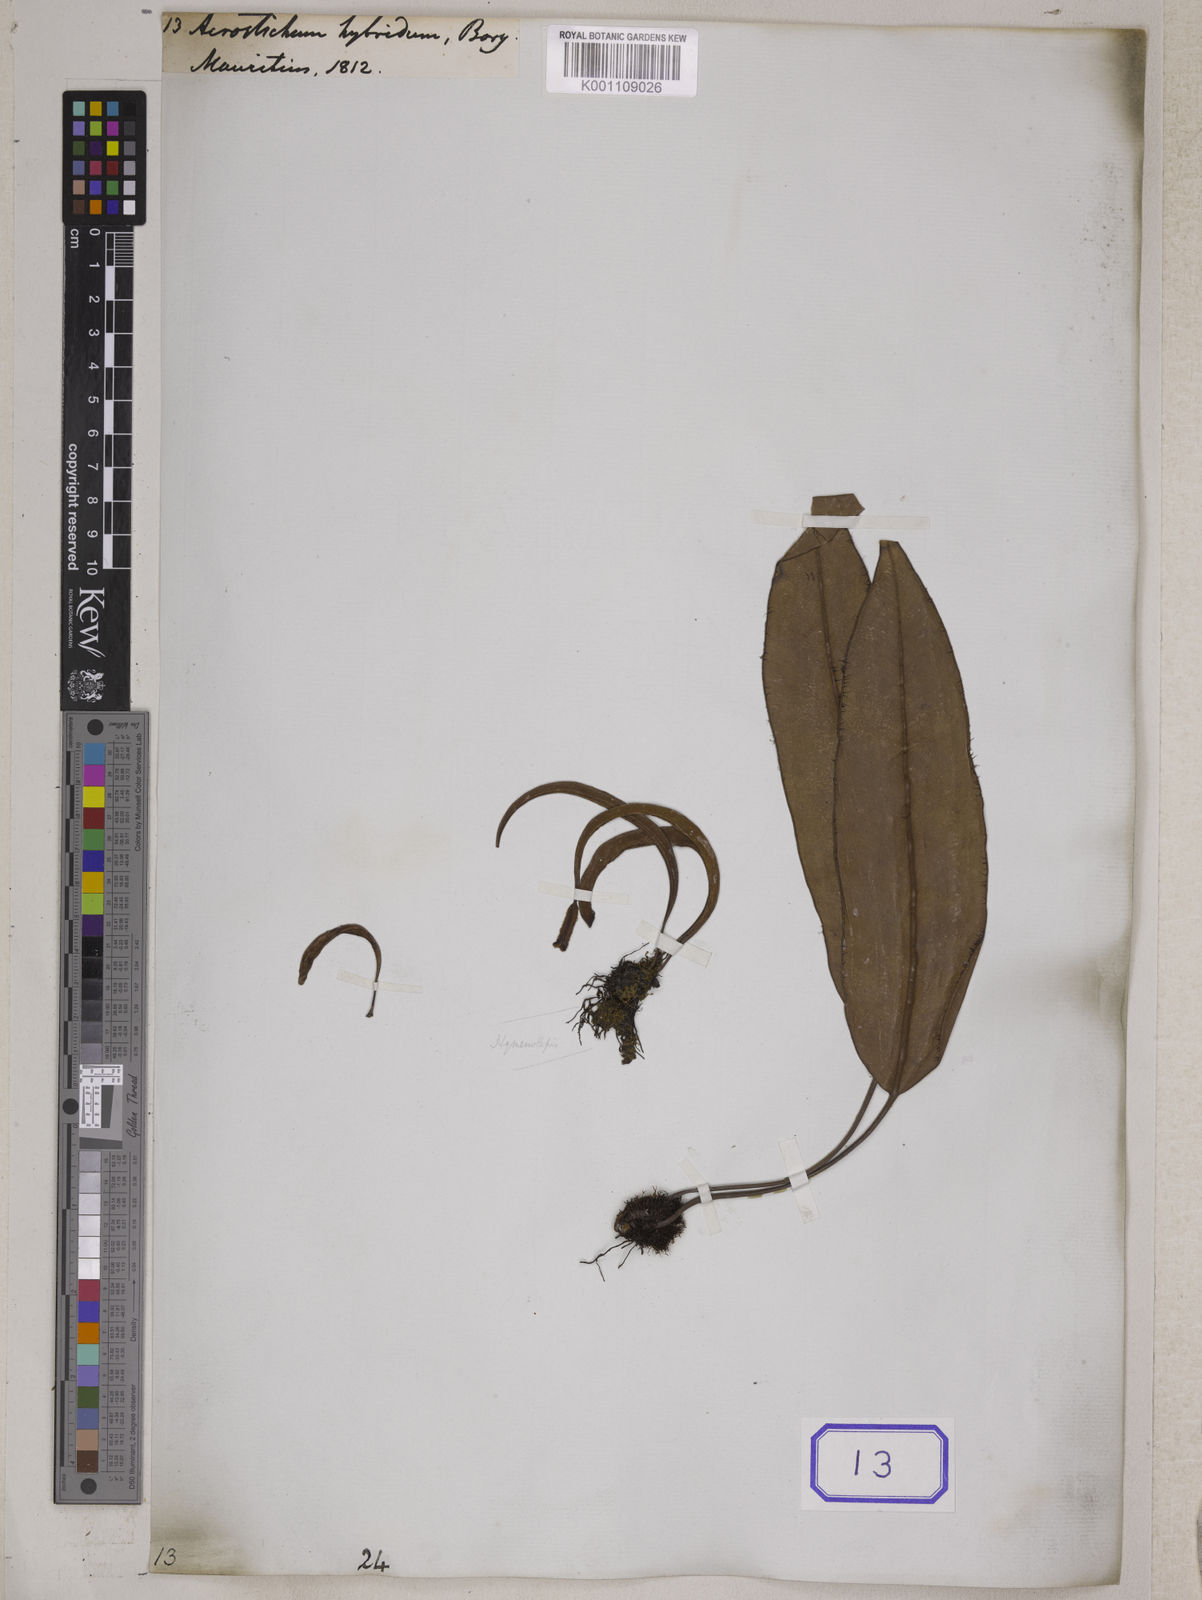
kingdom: Plantae
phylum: Tracheophyta
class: Polypodiopsida
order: Polypodiales
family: Dryopteridaceae
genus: Elaphoglossum
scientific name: Elaphoglossum hybridum
